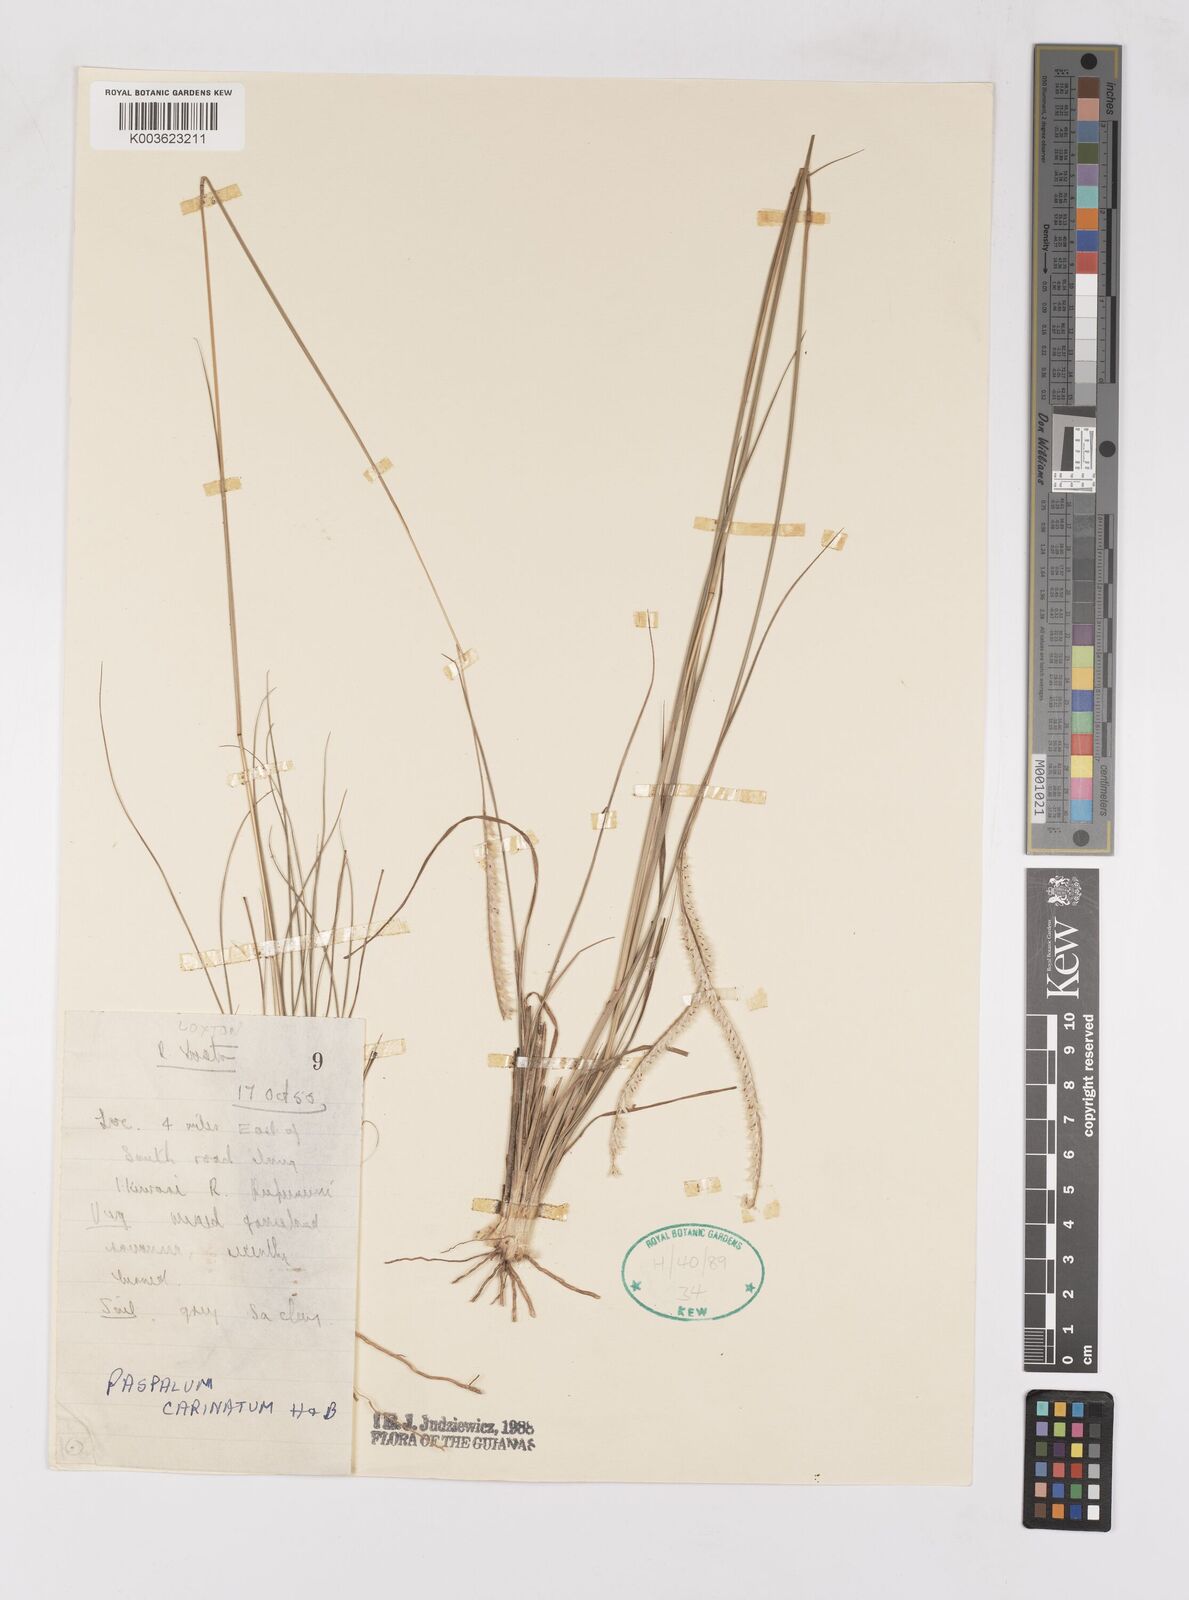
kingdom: Plantae
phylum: Tracheophyta
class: Liliopsida
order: Poales
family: Poaceae
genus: Paspalum
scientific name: Paspalum carinatum
